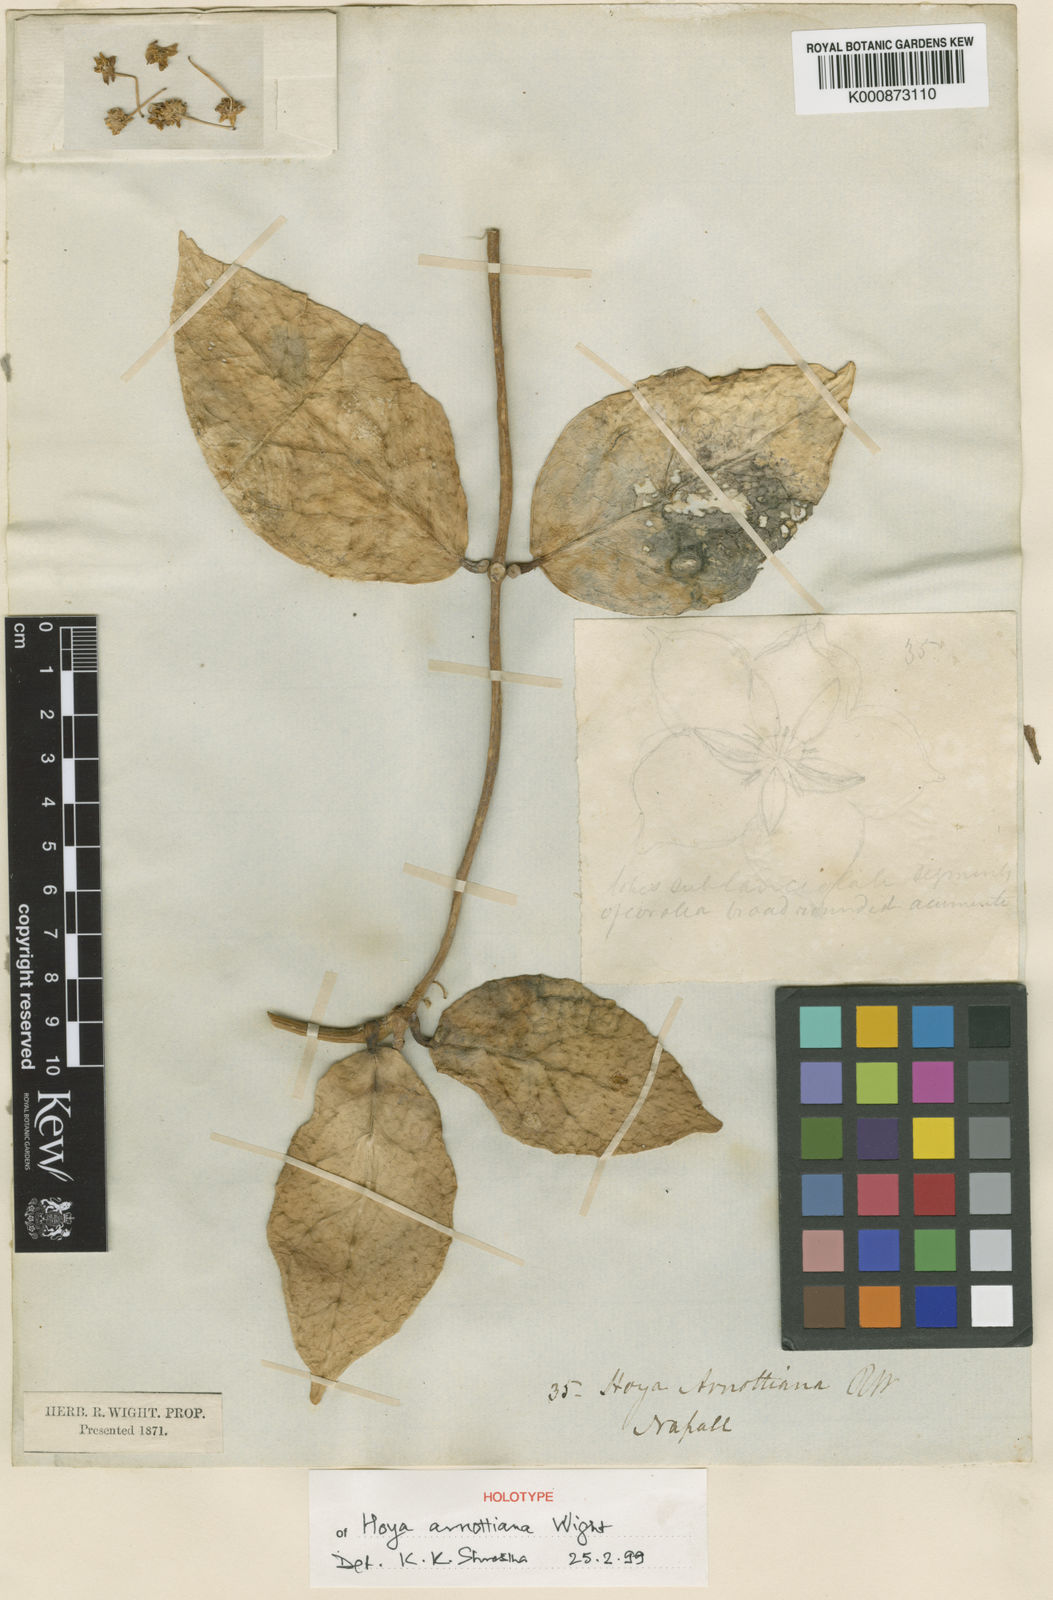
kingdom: Plantae
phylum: Tracheophyta
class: Magnoliopsida
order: Gentianales
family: Apocynaceae
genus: Hoya
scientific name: Hoya arnottiana
